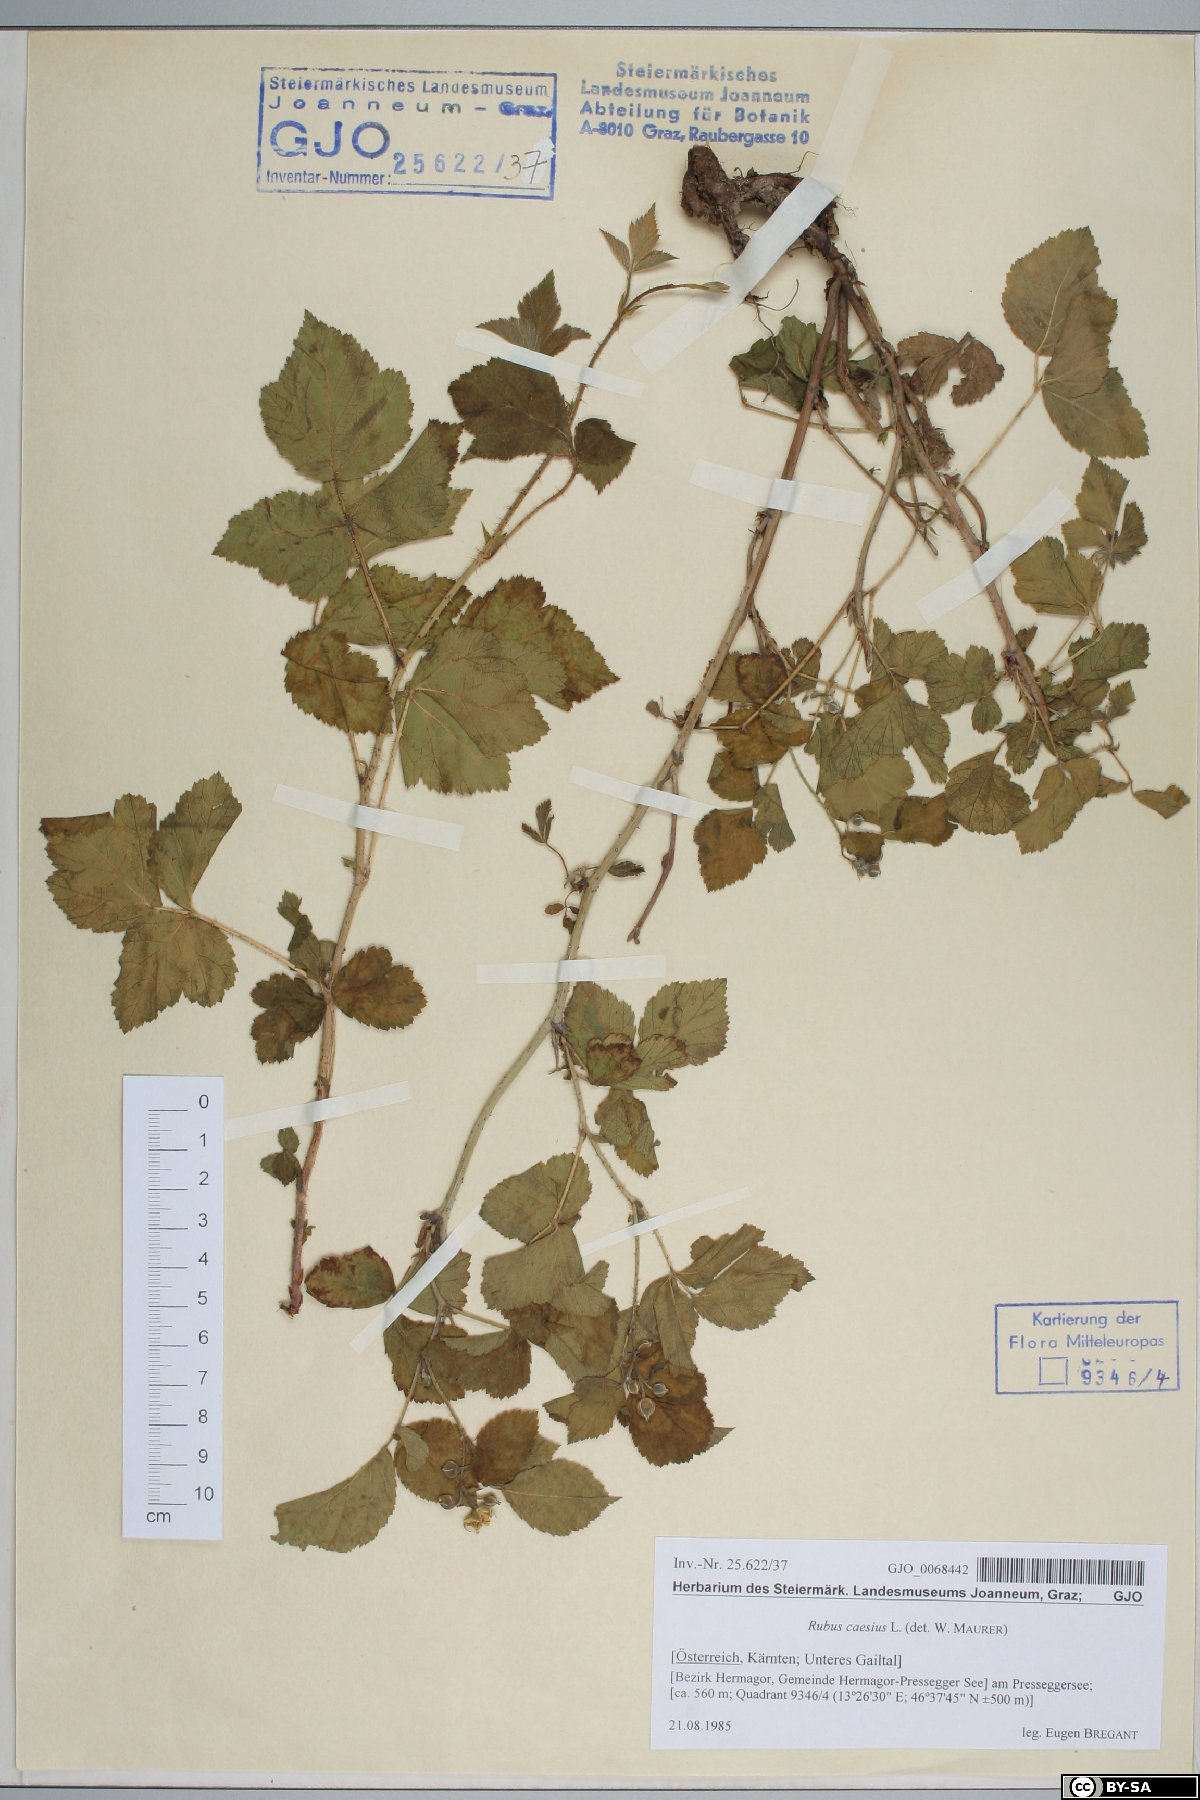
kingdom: Plantae
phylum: Tracheophyta
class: Magnoliopsida
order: Rosales
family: Rosaceae
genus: Rubus
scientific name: Rubus caesius
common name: Dewberry
